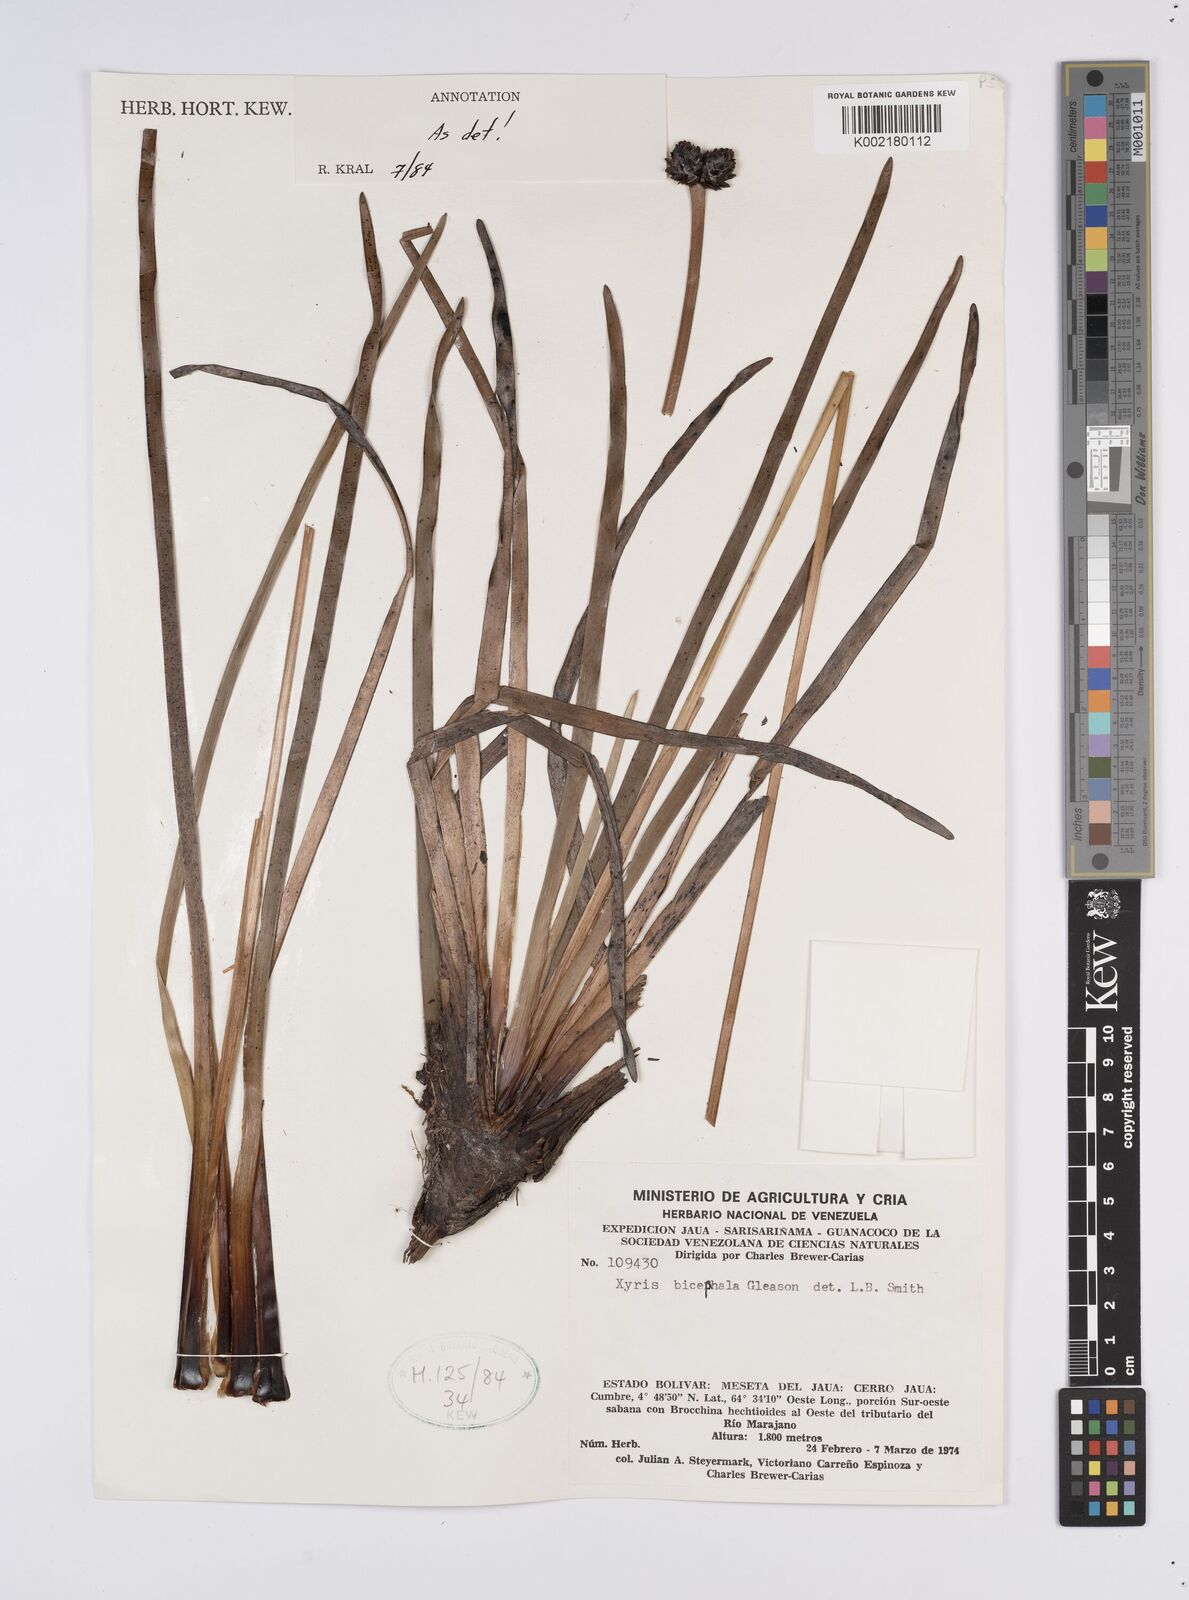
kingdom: Plantae
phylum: Tracheophyta
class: Liliopsida
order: Poales
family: Xyridaceae
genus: Xyris
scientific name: Xyris bicephala
